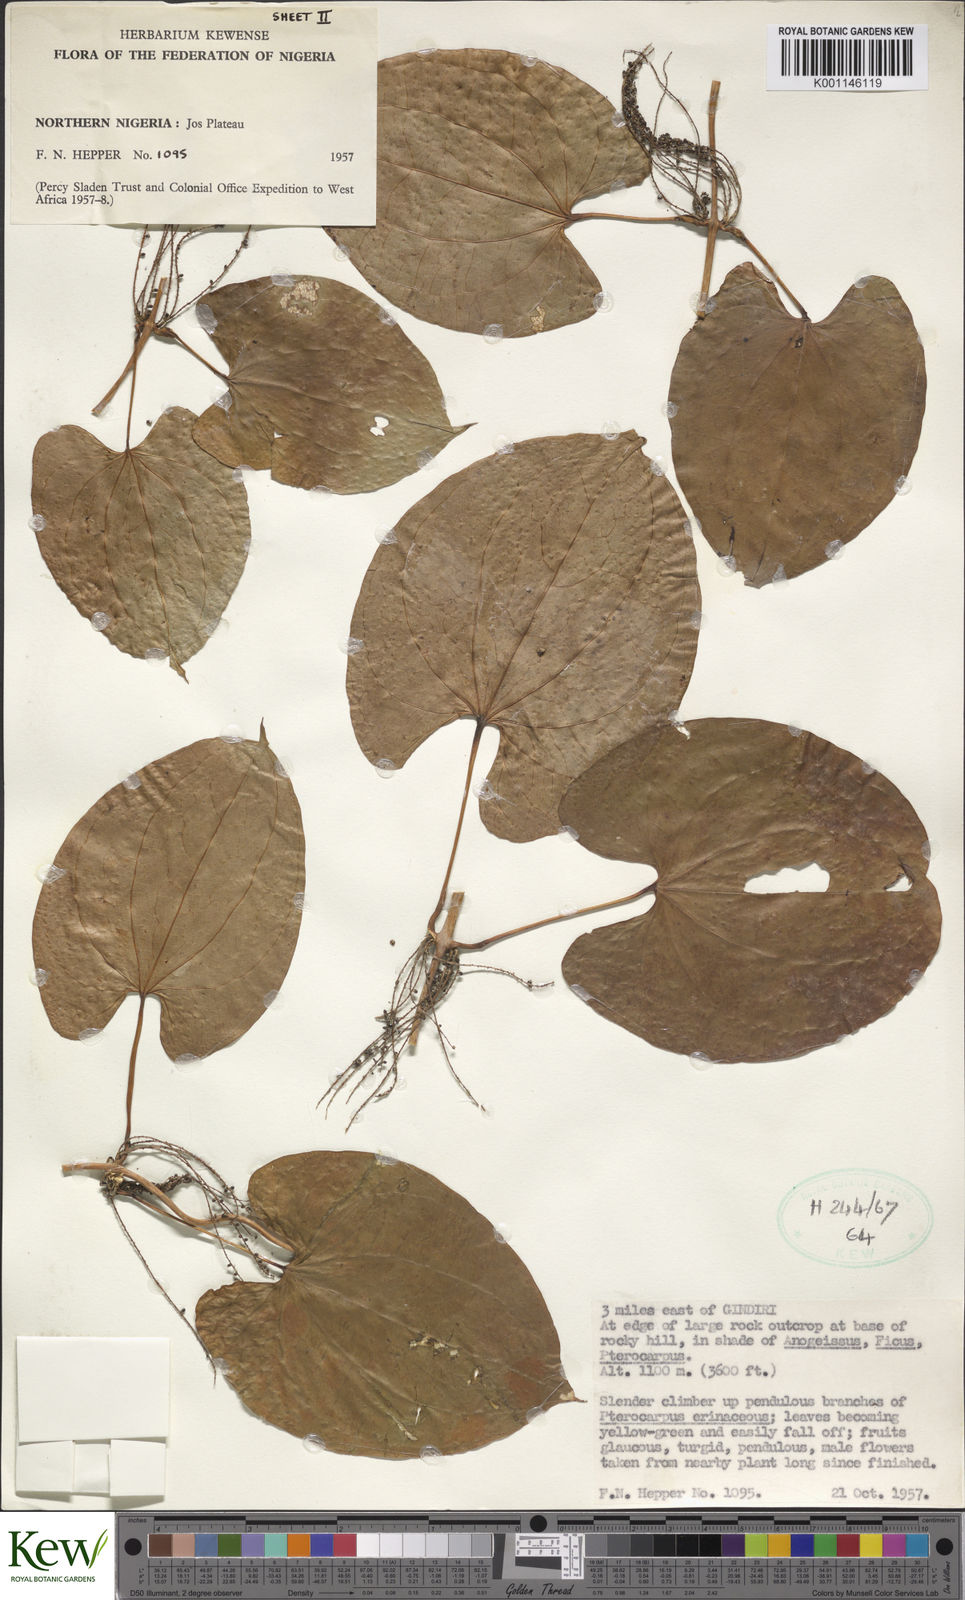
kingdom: Plantae
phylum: Tracheophyta
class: Liliopsida
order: Dioscoreales
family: Dioscoreaceae
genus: Dioscorea
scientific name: Dioscorea
